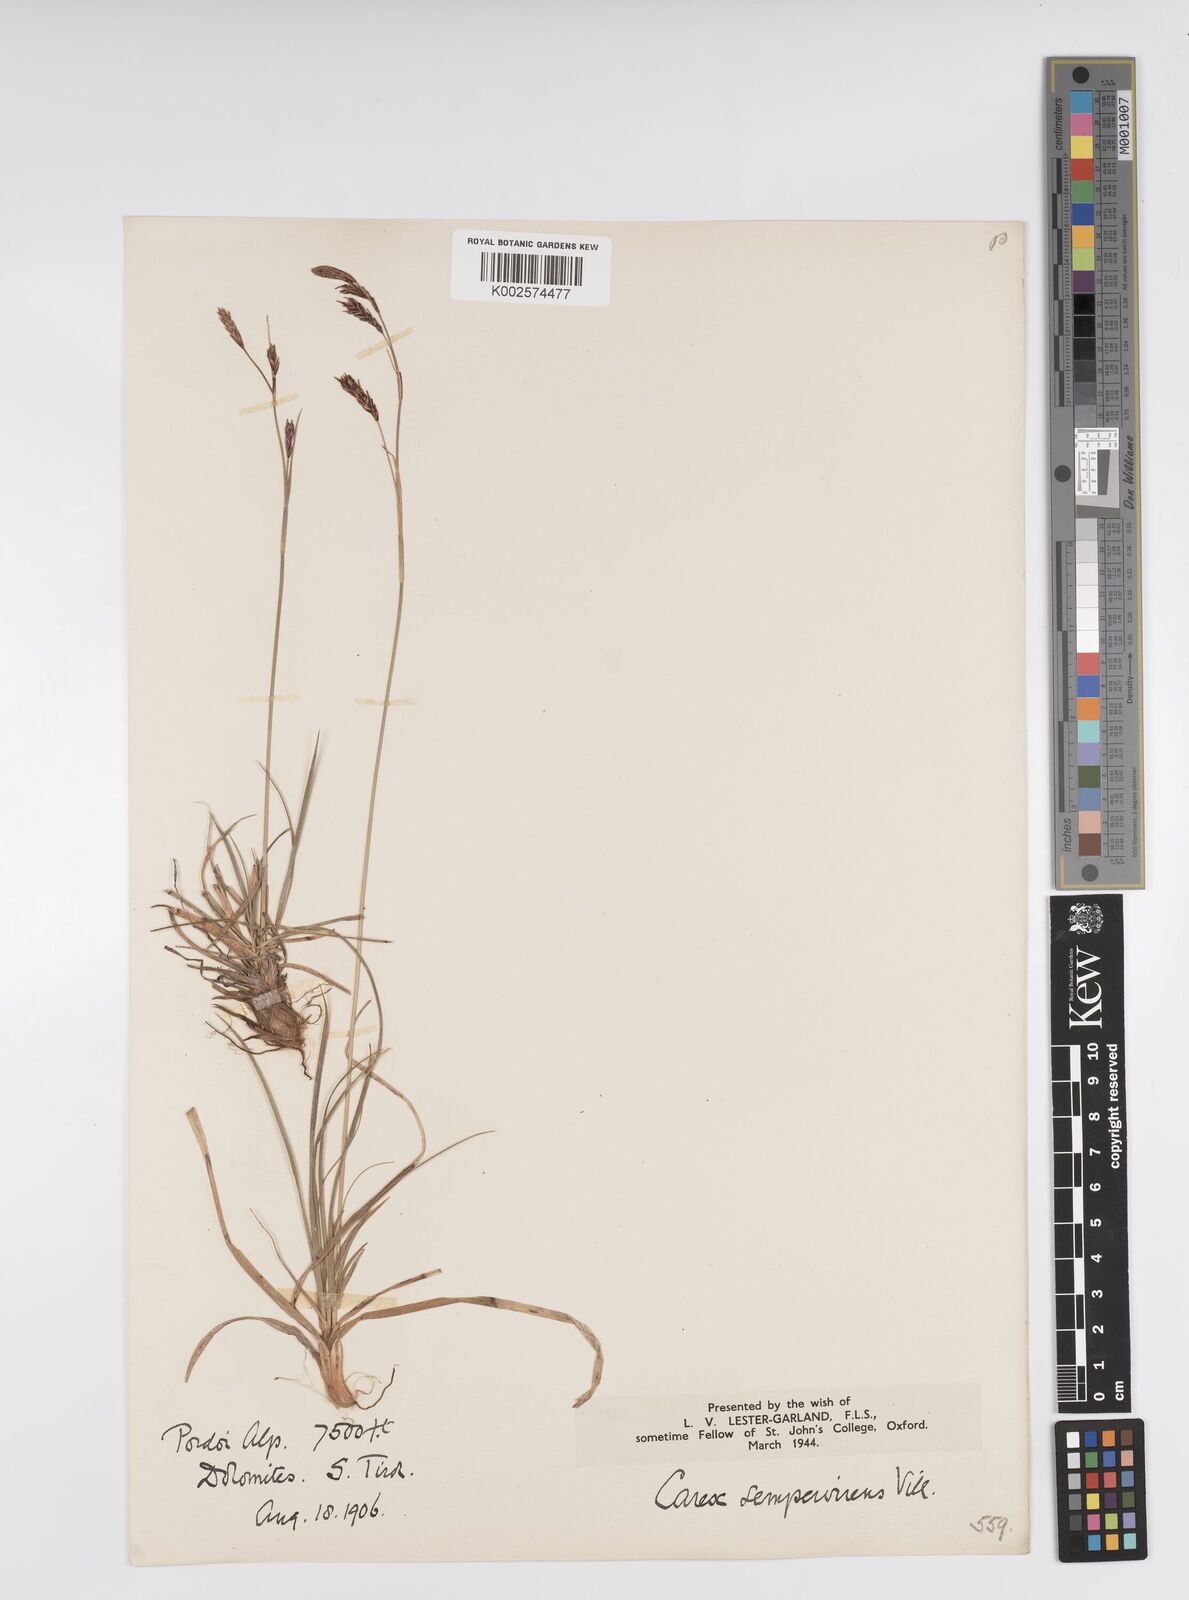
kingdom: Plantae
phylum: Tracheophyta
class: Liliopsida
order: Poales
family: Cyperaceae
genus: Carex
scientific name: Carex sempervirens
